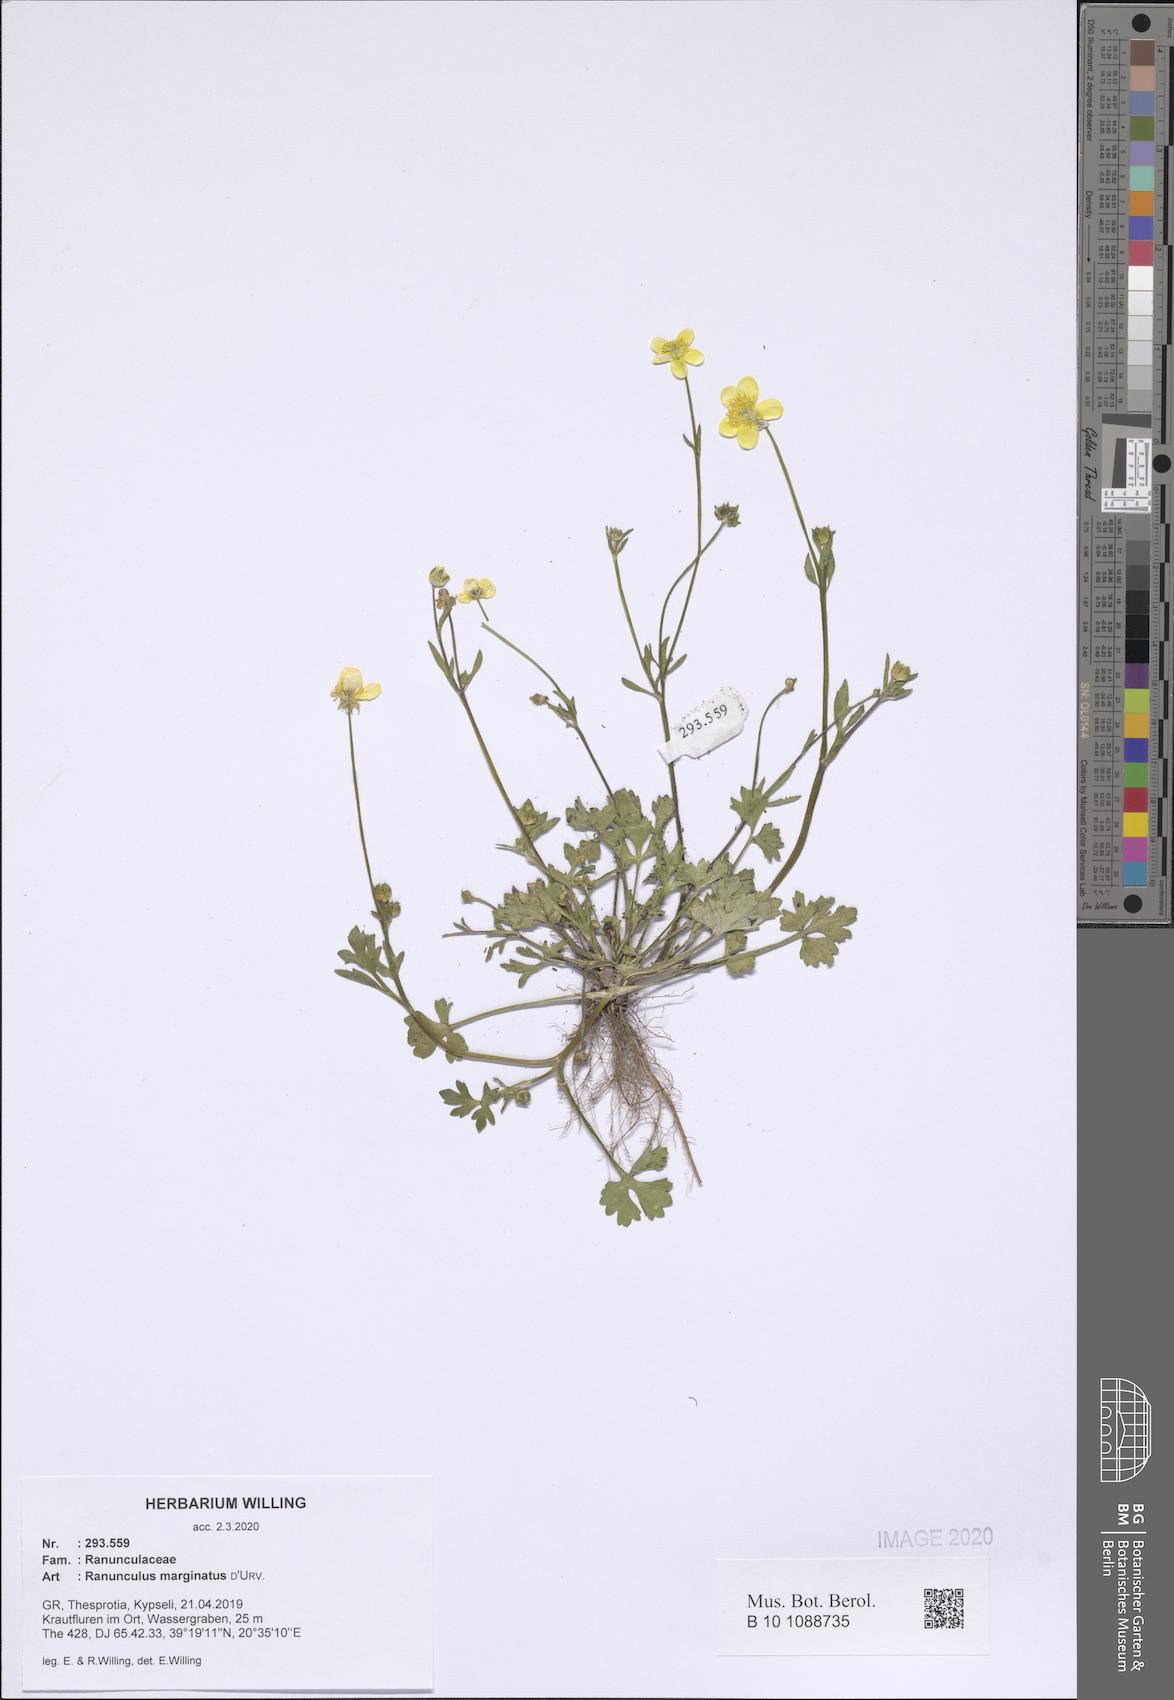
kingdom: Plantae
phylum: Tracheophyta
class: Magnoliopsida
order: Ranunculales
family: Ranunculaceae
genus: Ranunculus
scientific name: Ranunculus marginatus
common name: St. martin's buttercup
